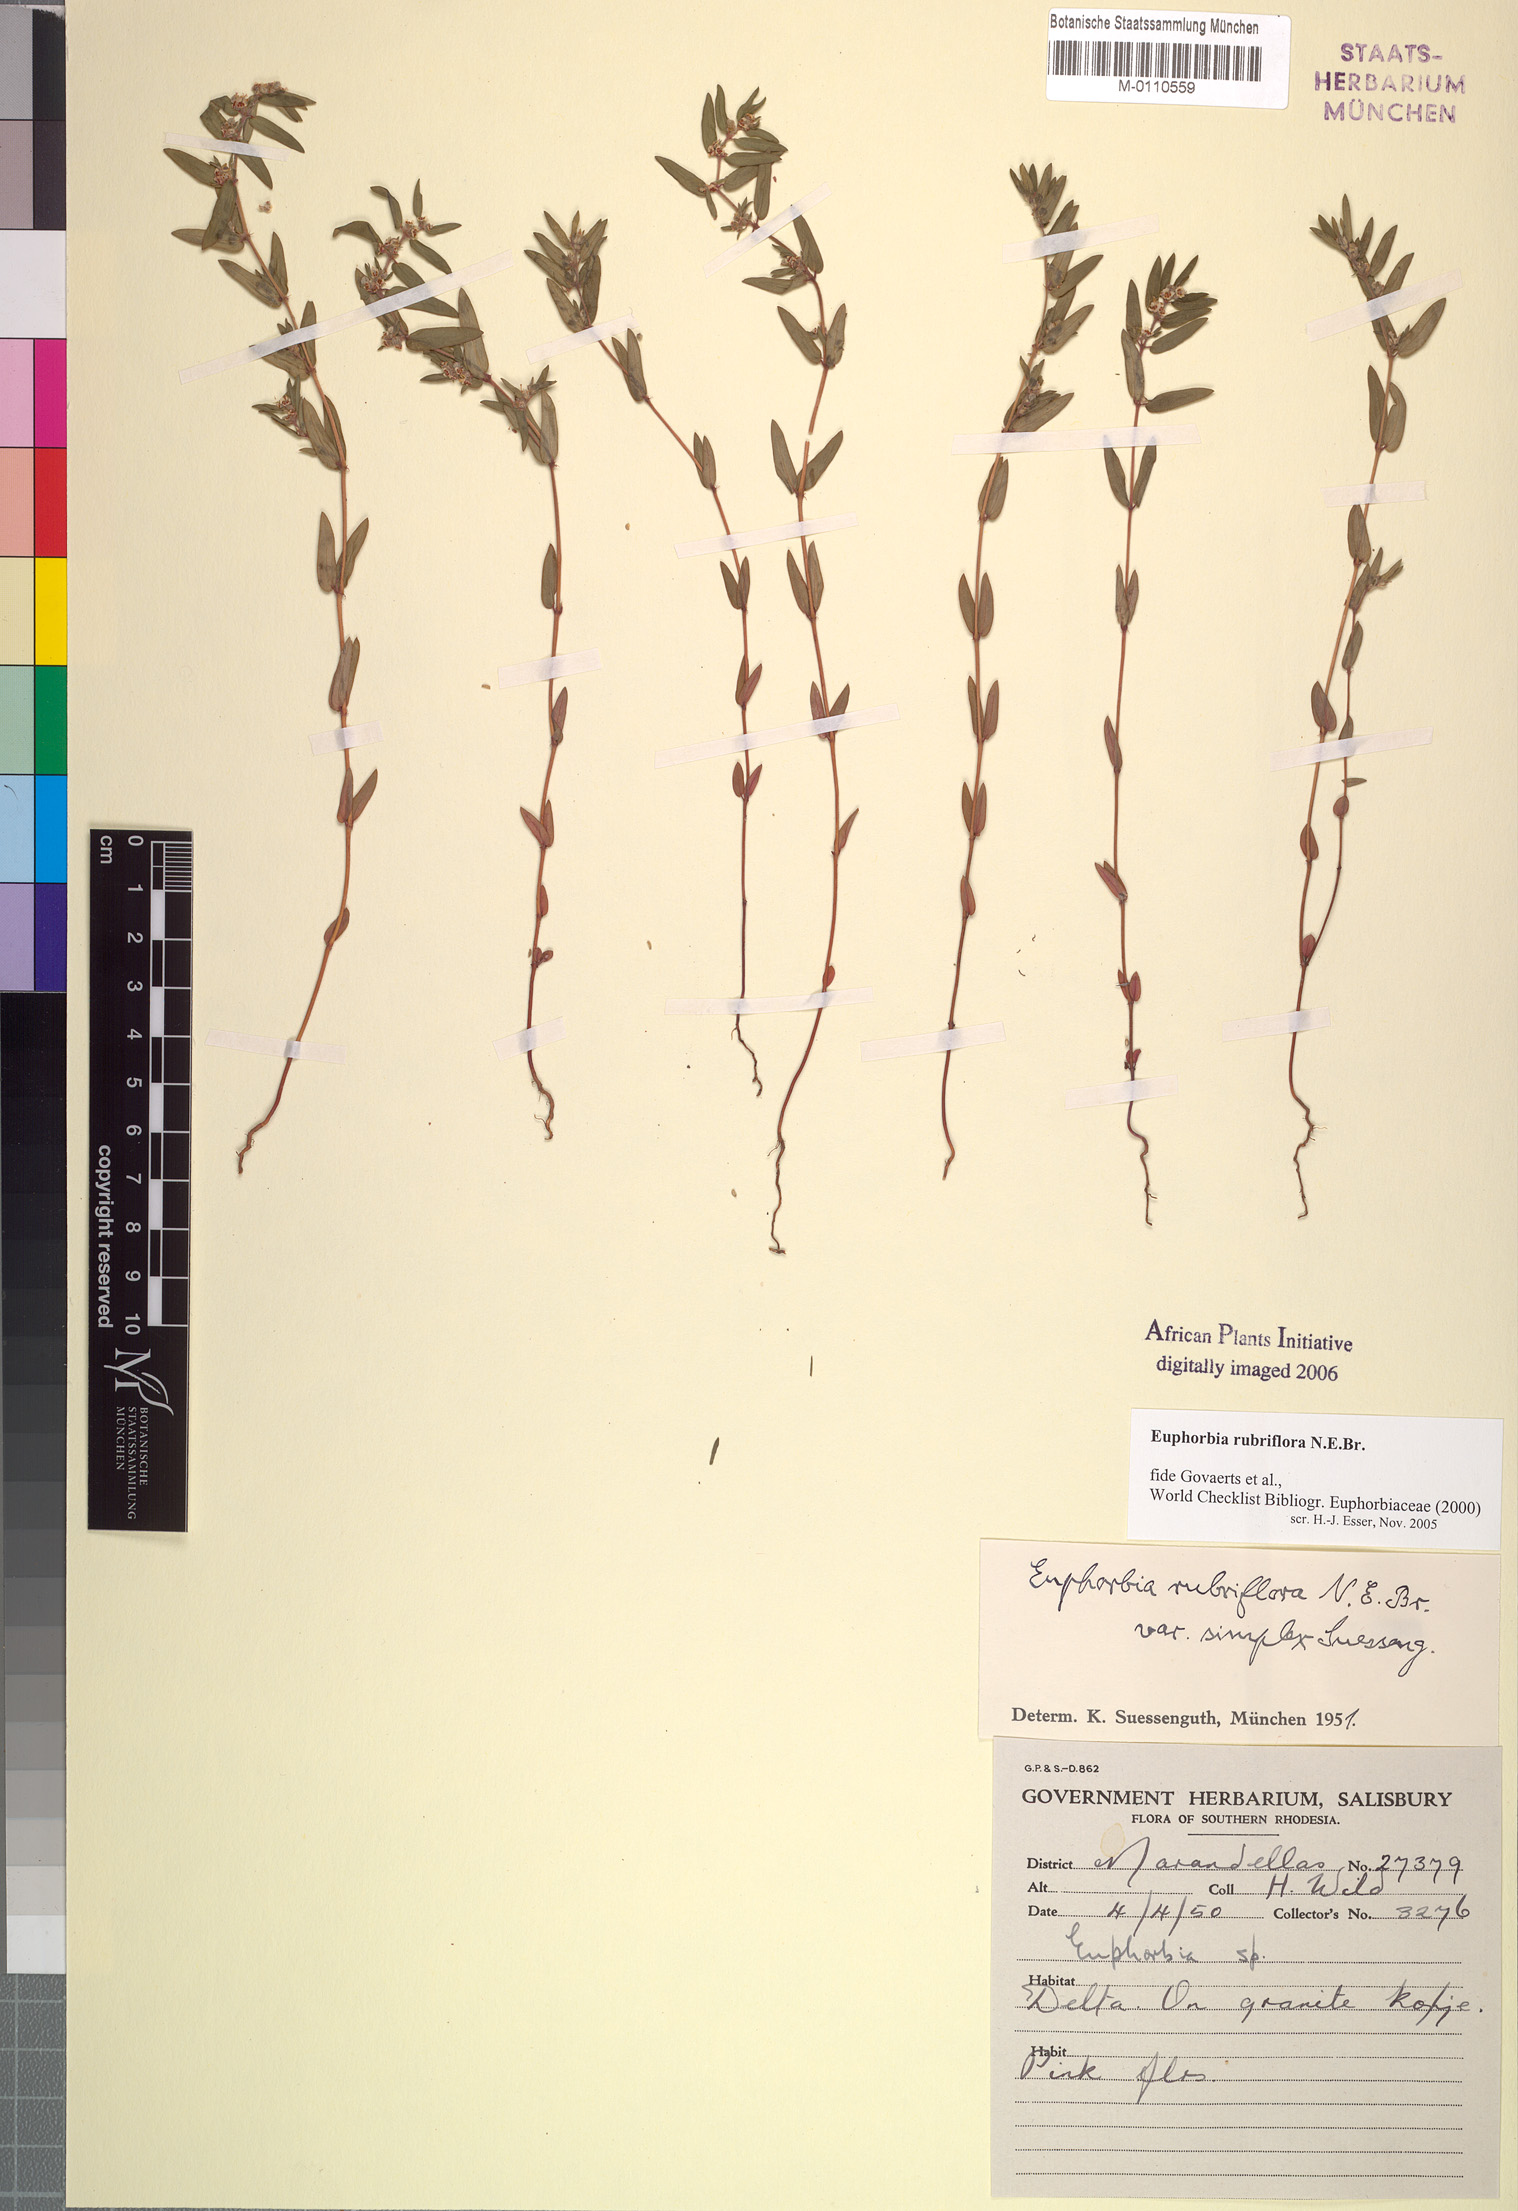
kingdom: Plantae
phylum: Tracheophyta
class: Magnoliopsida
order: Malpighiales
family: Euphorbiaceae
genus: Euphorbia
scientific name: Euphorbia rubriflora
